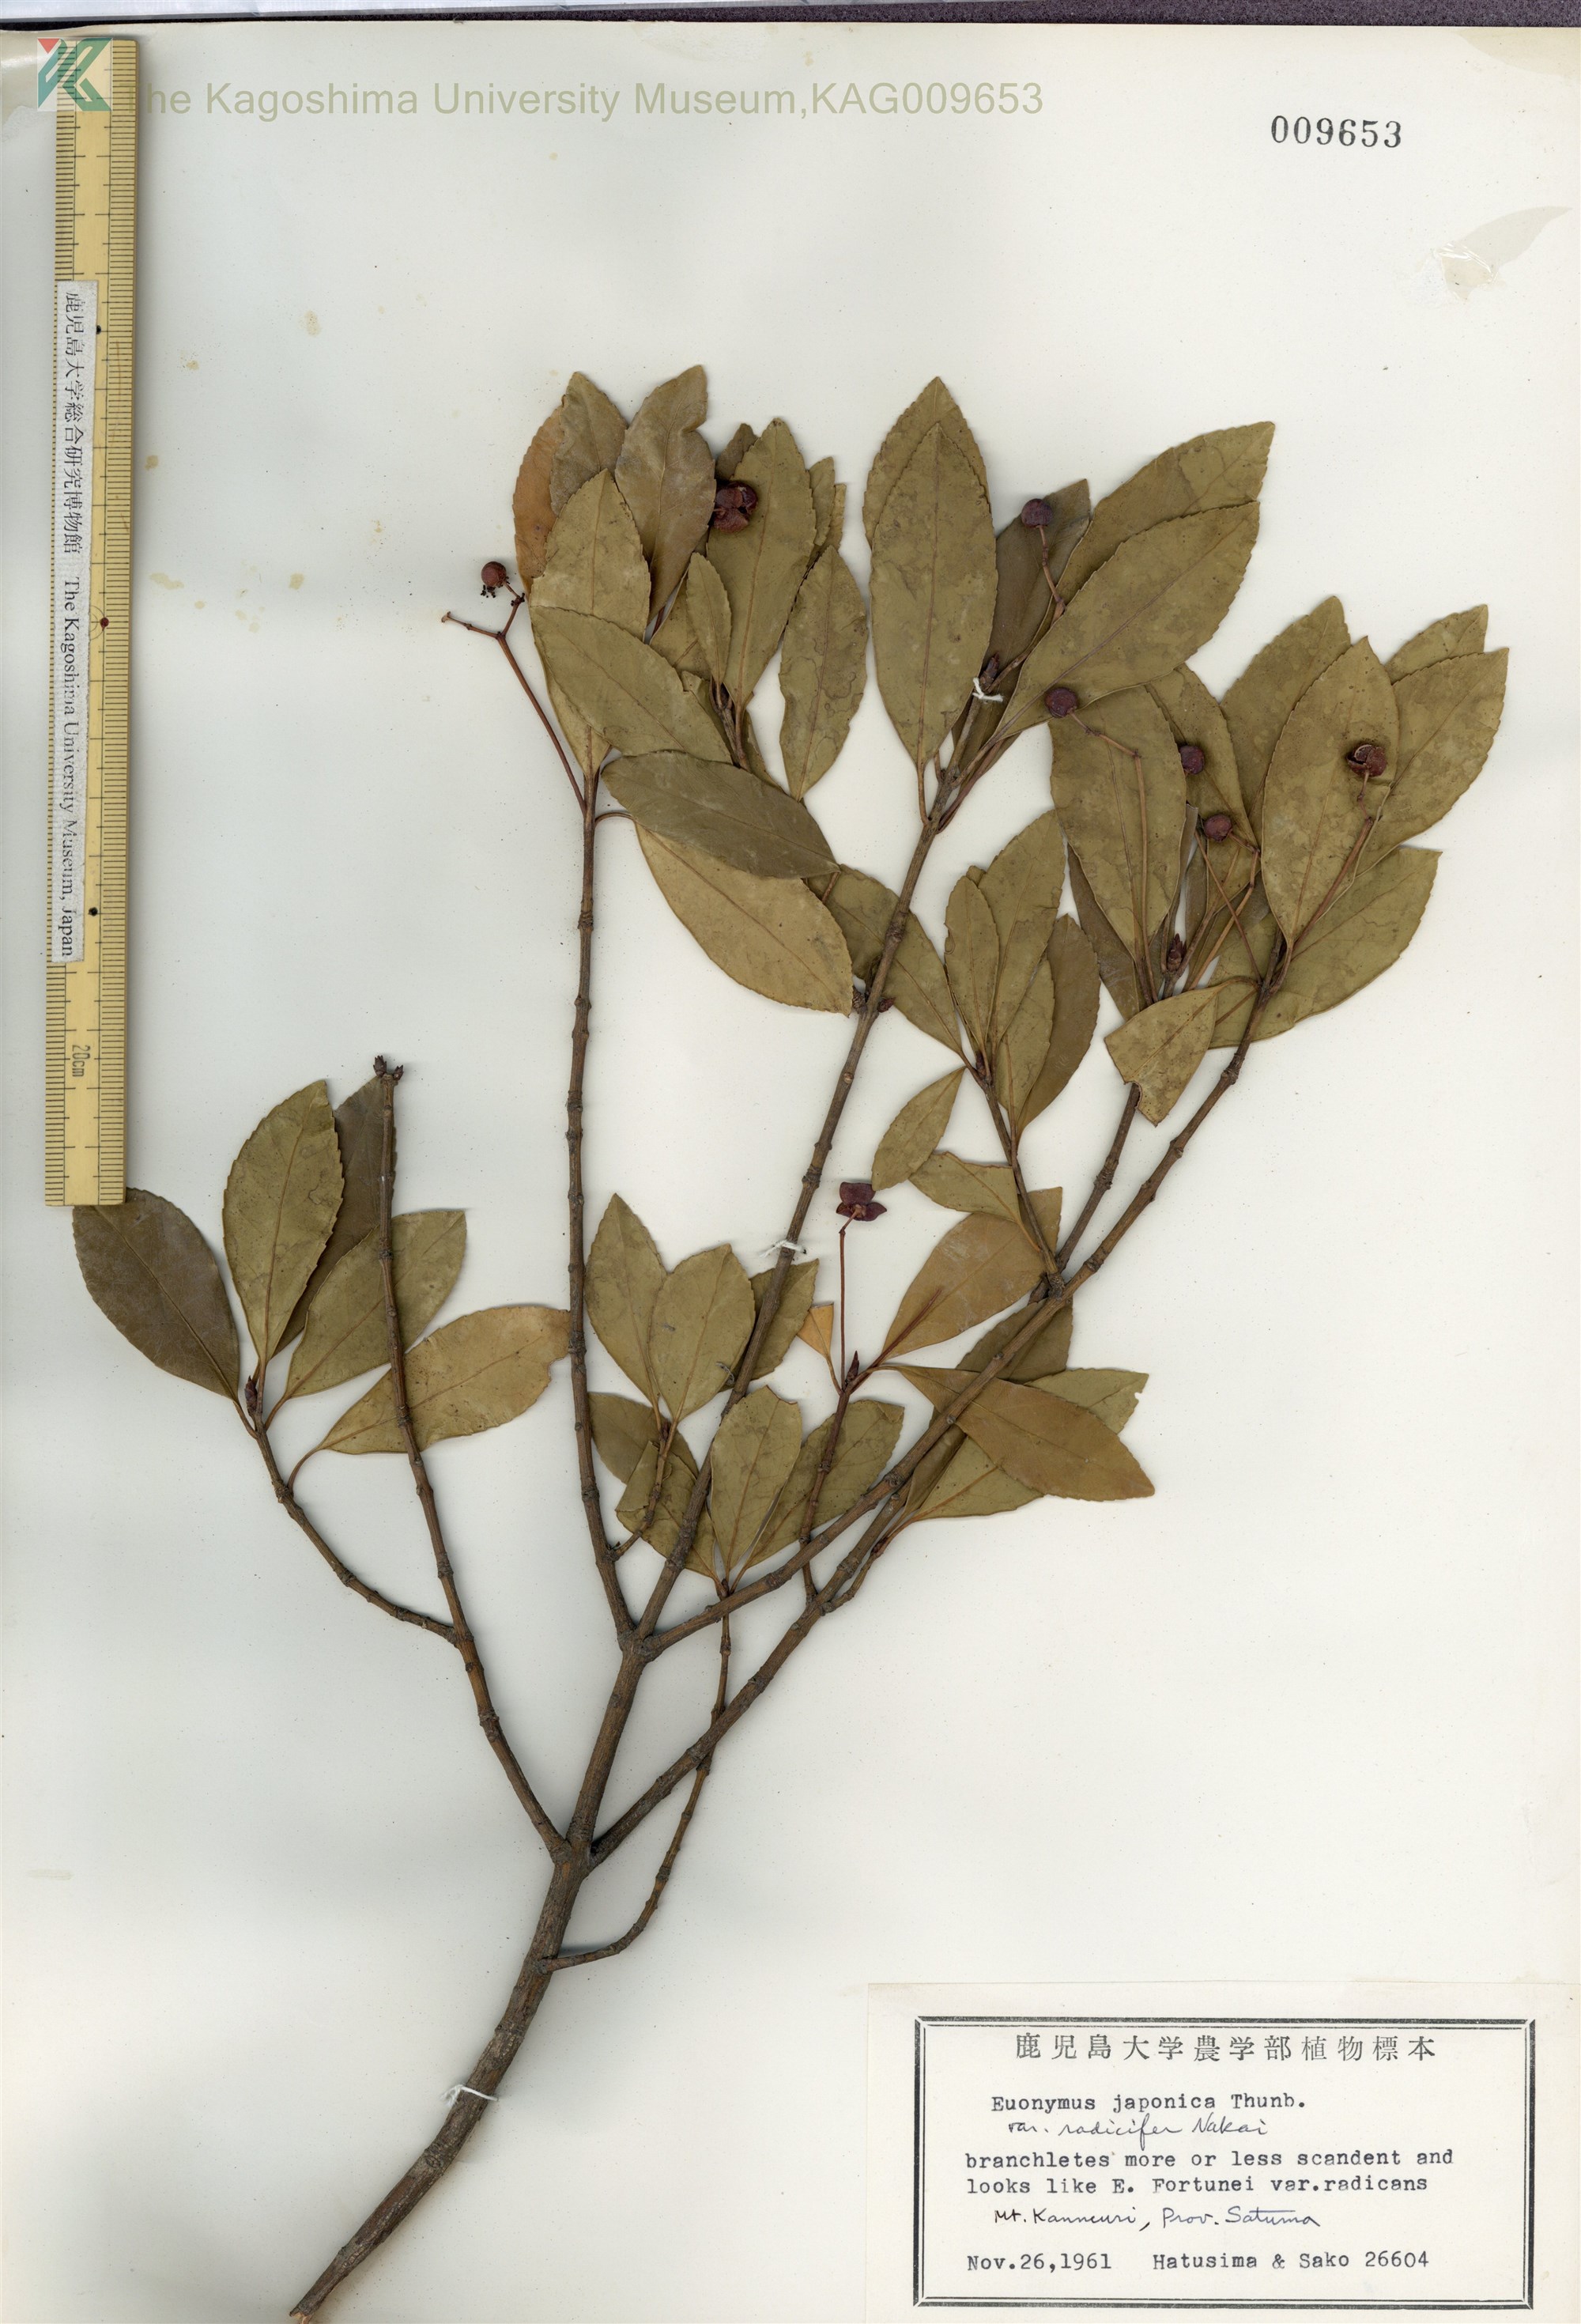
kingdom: Plantae
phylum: Tracheophyta
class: Magnoliopsida
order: Celastrales
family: Celastraceae
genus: Euonymus
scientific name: Euonymus japonicus
